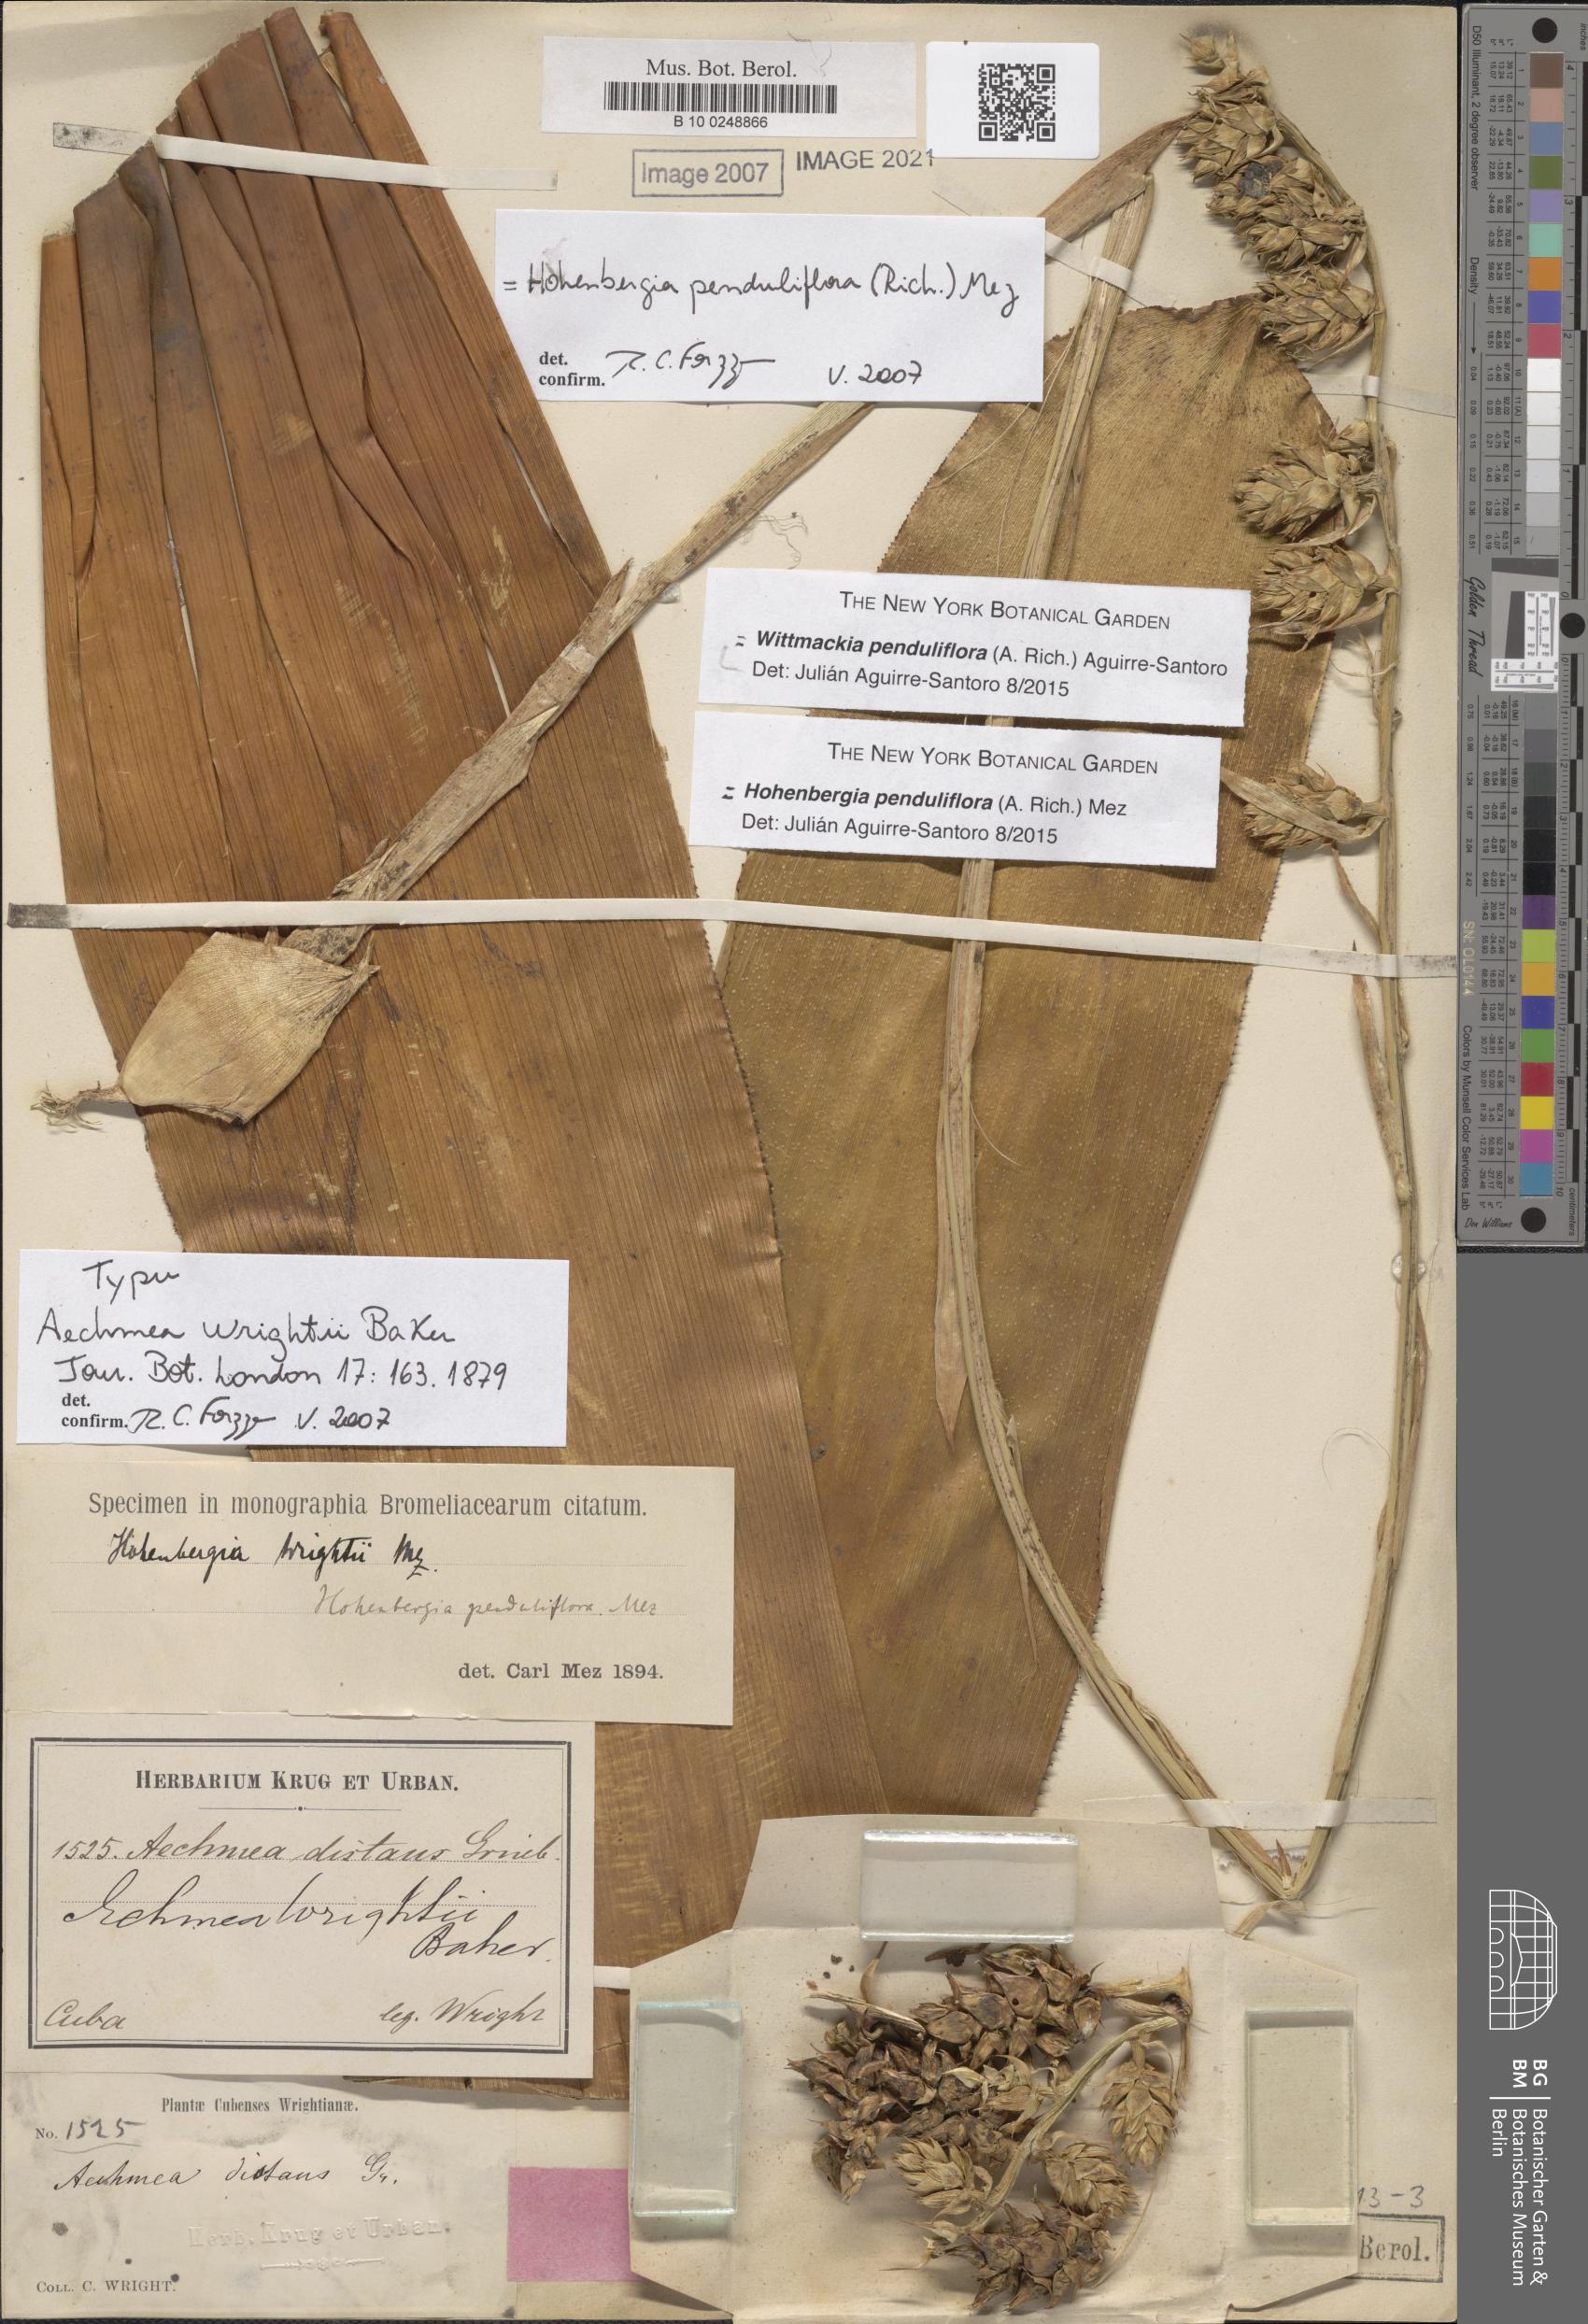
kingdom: Plantae
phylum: Tracheophyta
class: Liliopsida
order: Poales
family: Bromeliaceae
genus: Wittmackia
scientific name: Wittmackia penduliflora
